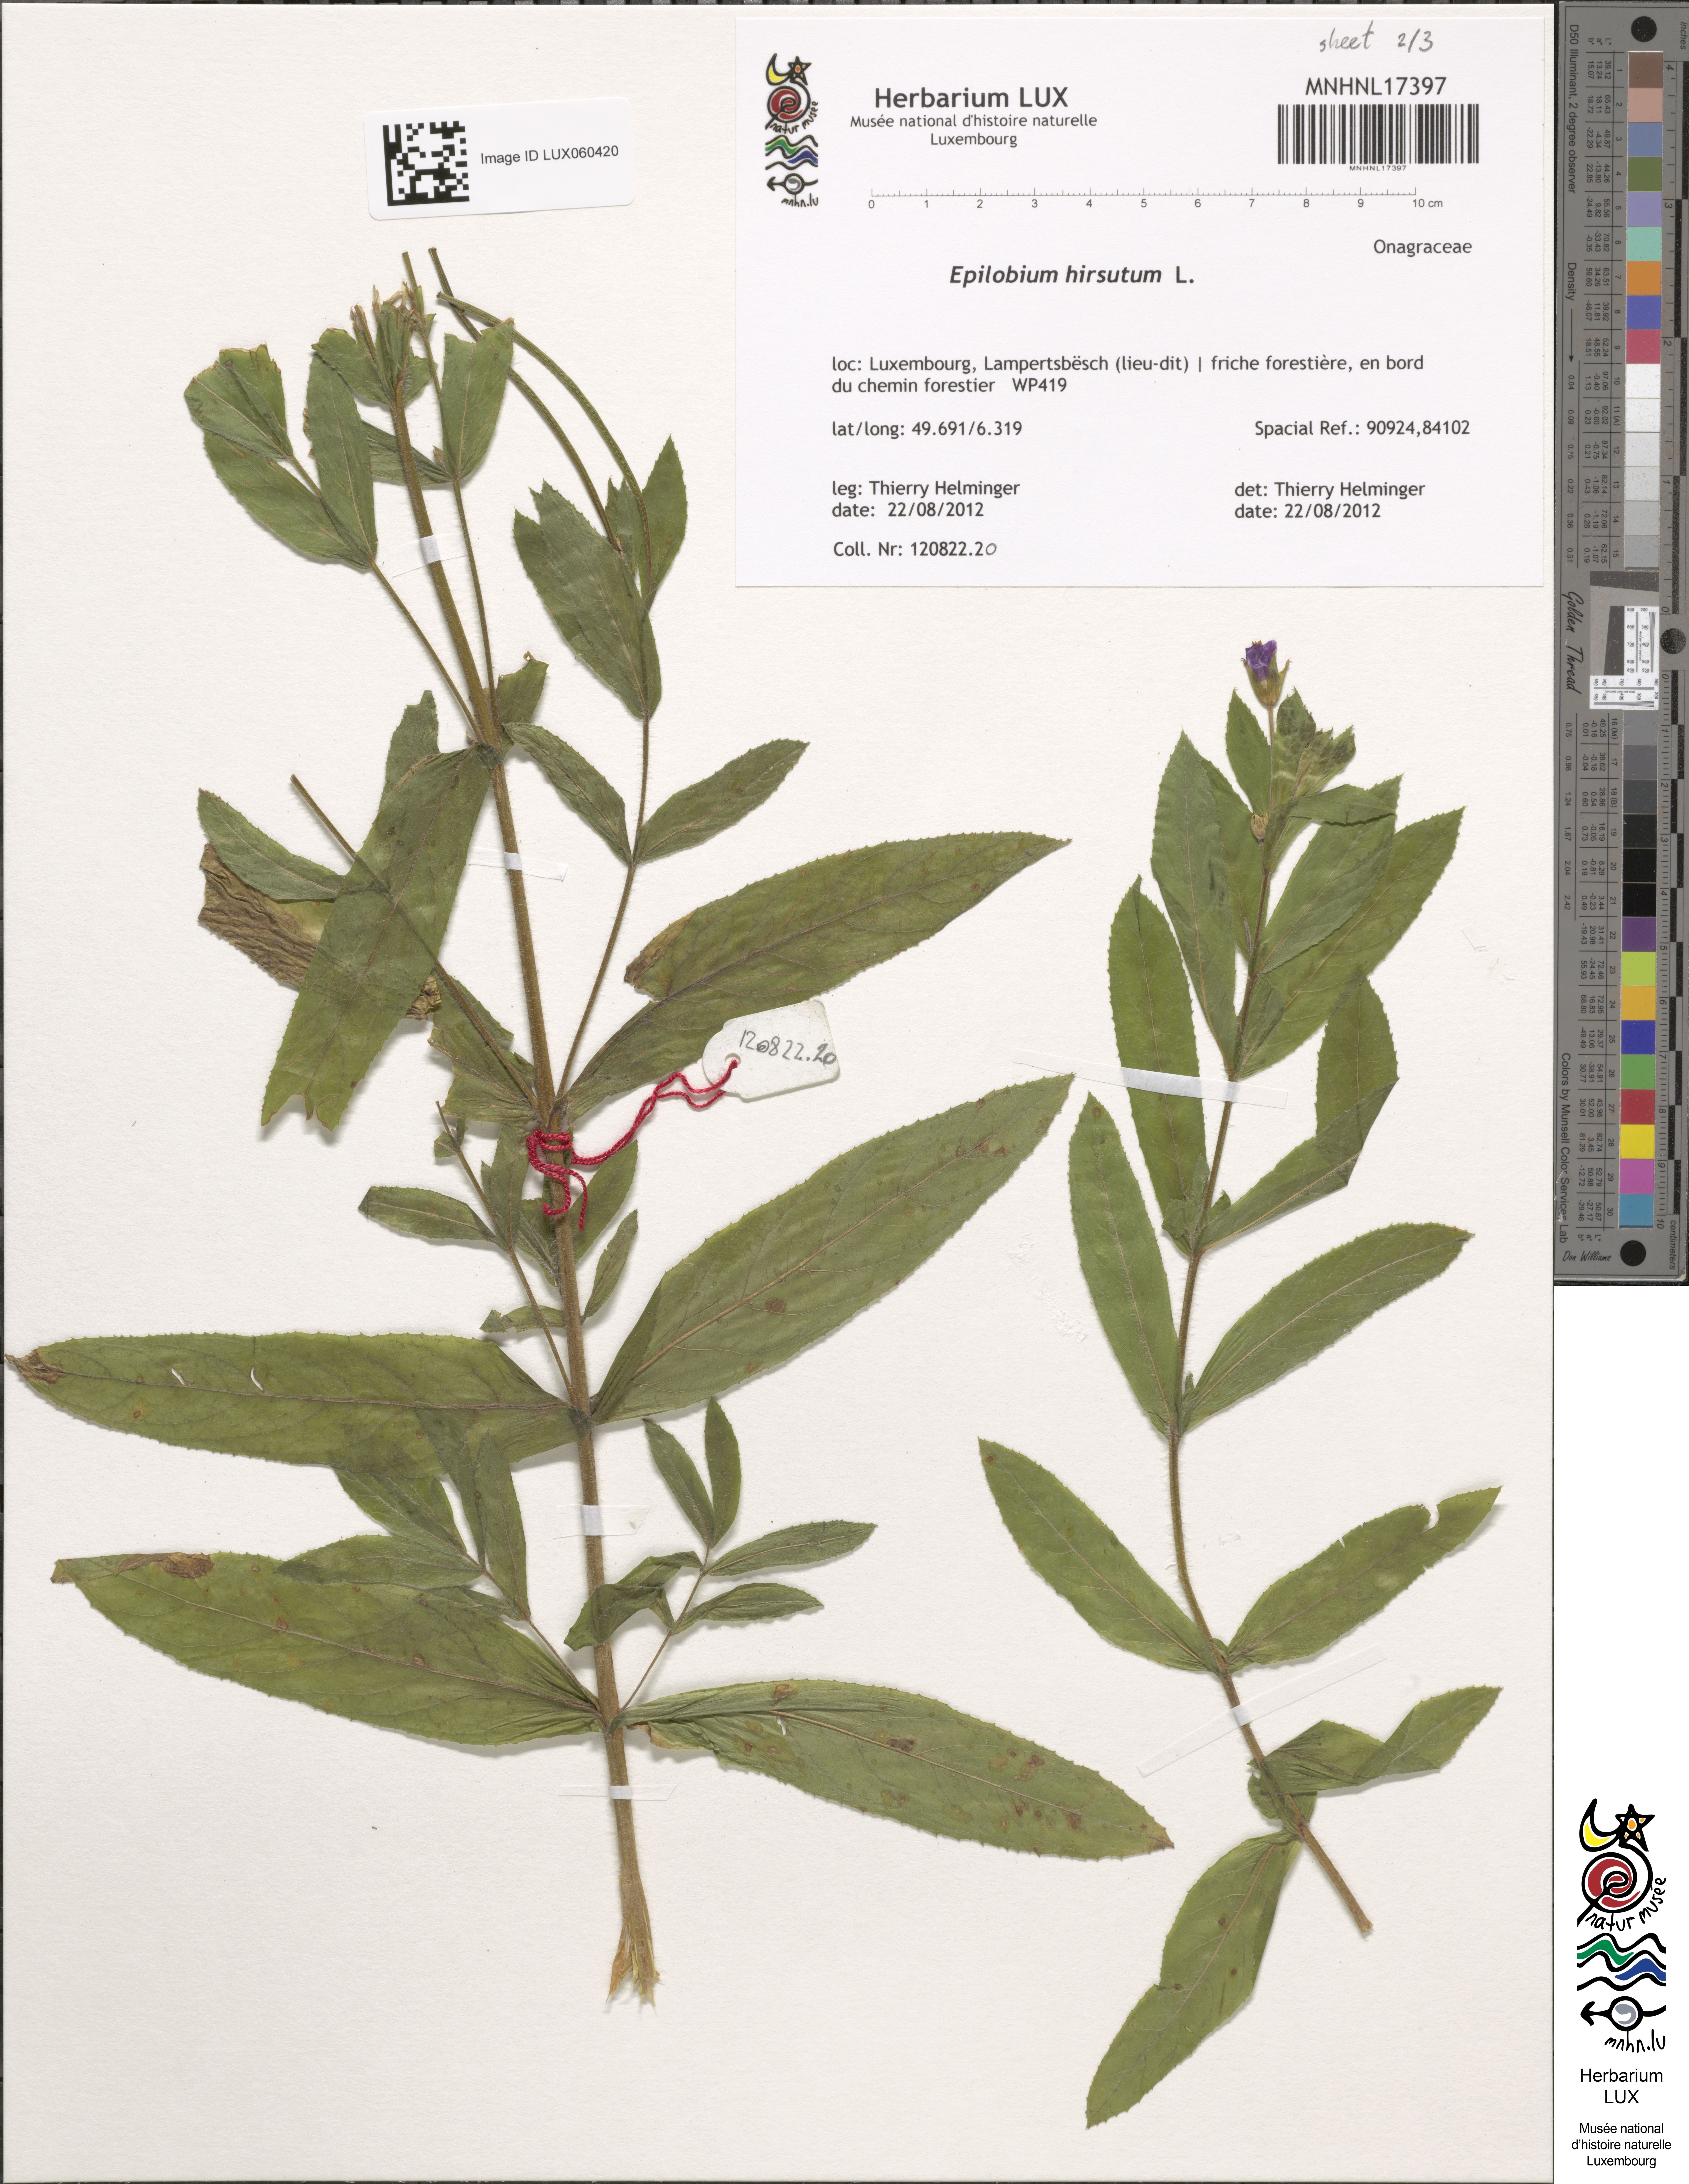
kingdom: Plantae
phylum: Tracheophyta
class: Magnoliopsida
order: Myrtales
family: Onagraceae
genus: Epilobium
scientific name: Epilobium hirsutum
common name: Great willowherb
